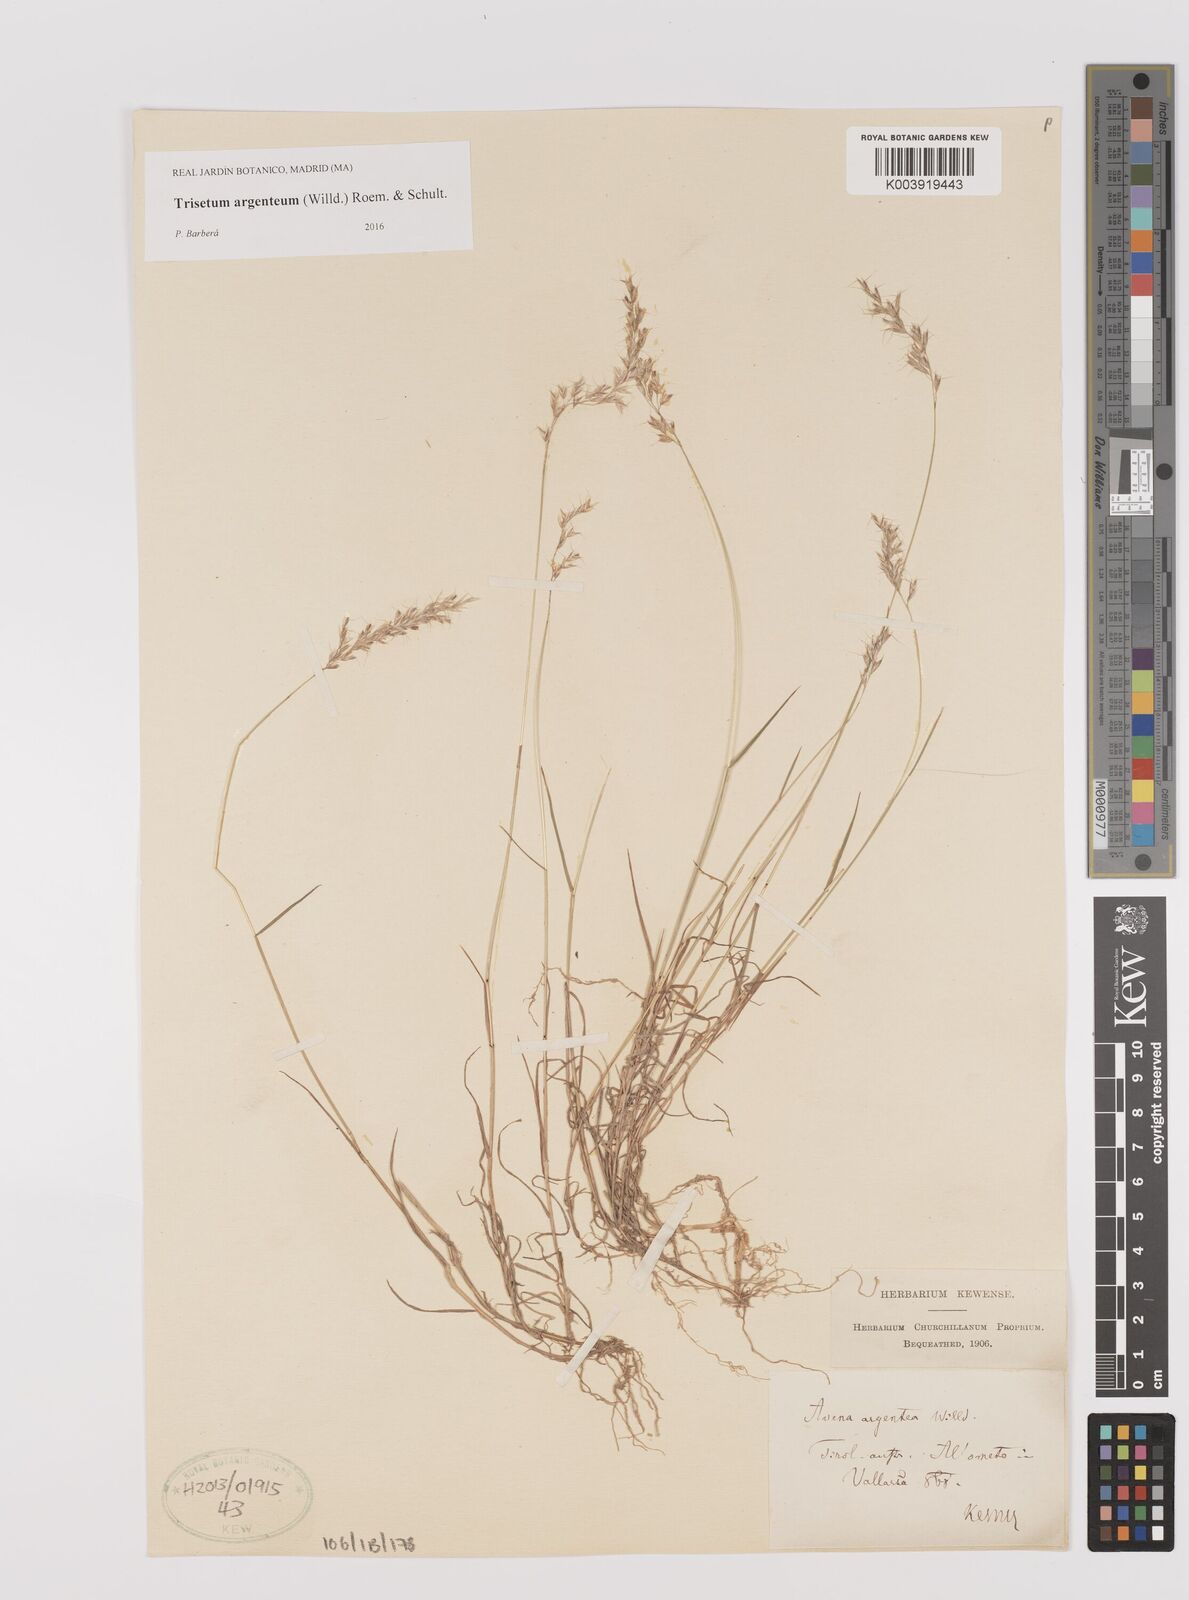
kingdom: Plantae
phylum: Tracheophyta
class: Liliopsida
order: Poales
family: Poaceae
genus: Trisetum
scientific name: Trisetum argenteum
